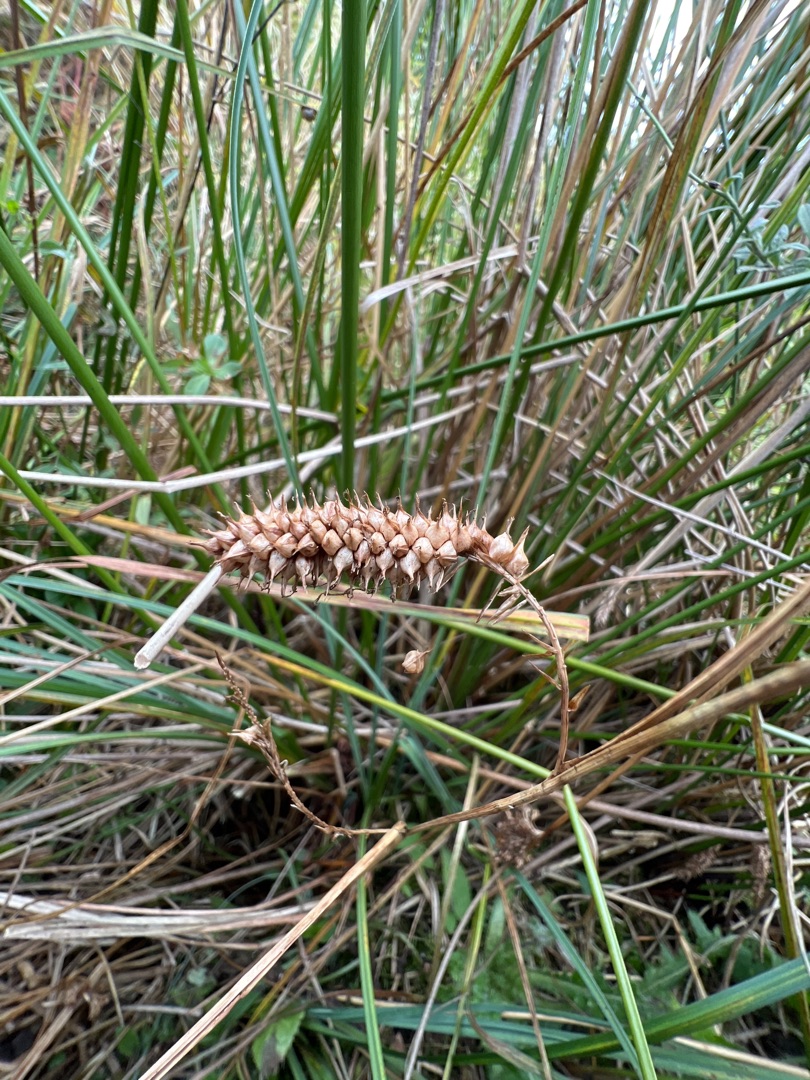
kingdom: Plantae
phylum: Tracheophyta
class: Liliopsida
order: Poales
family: Cyperaceae
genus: Carex
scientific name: Carex rostrata
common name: Næb-star
